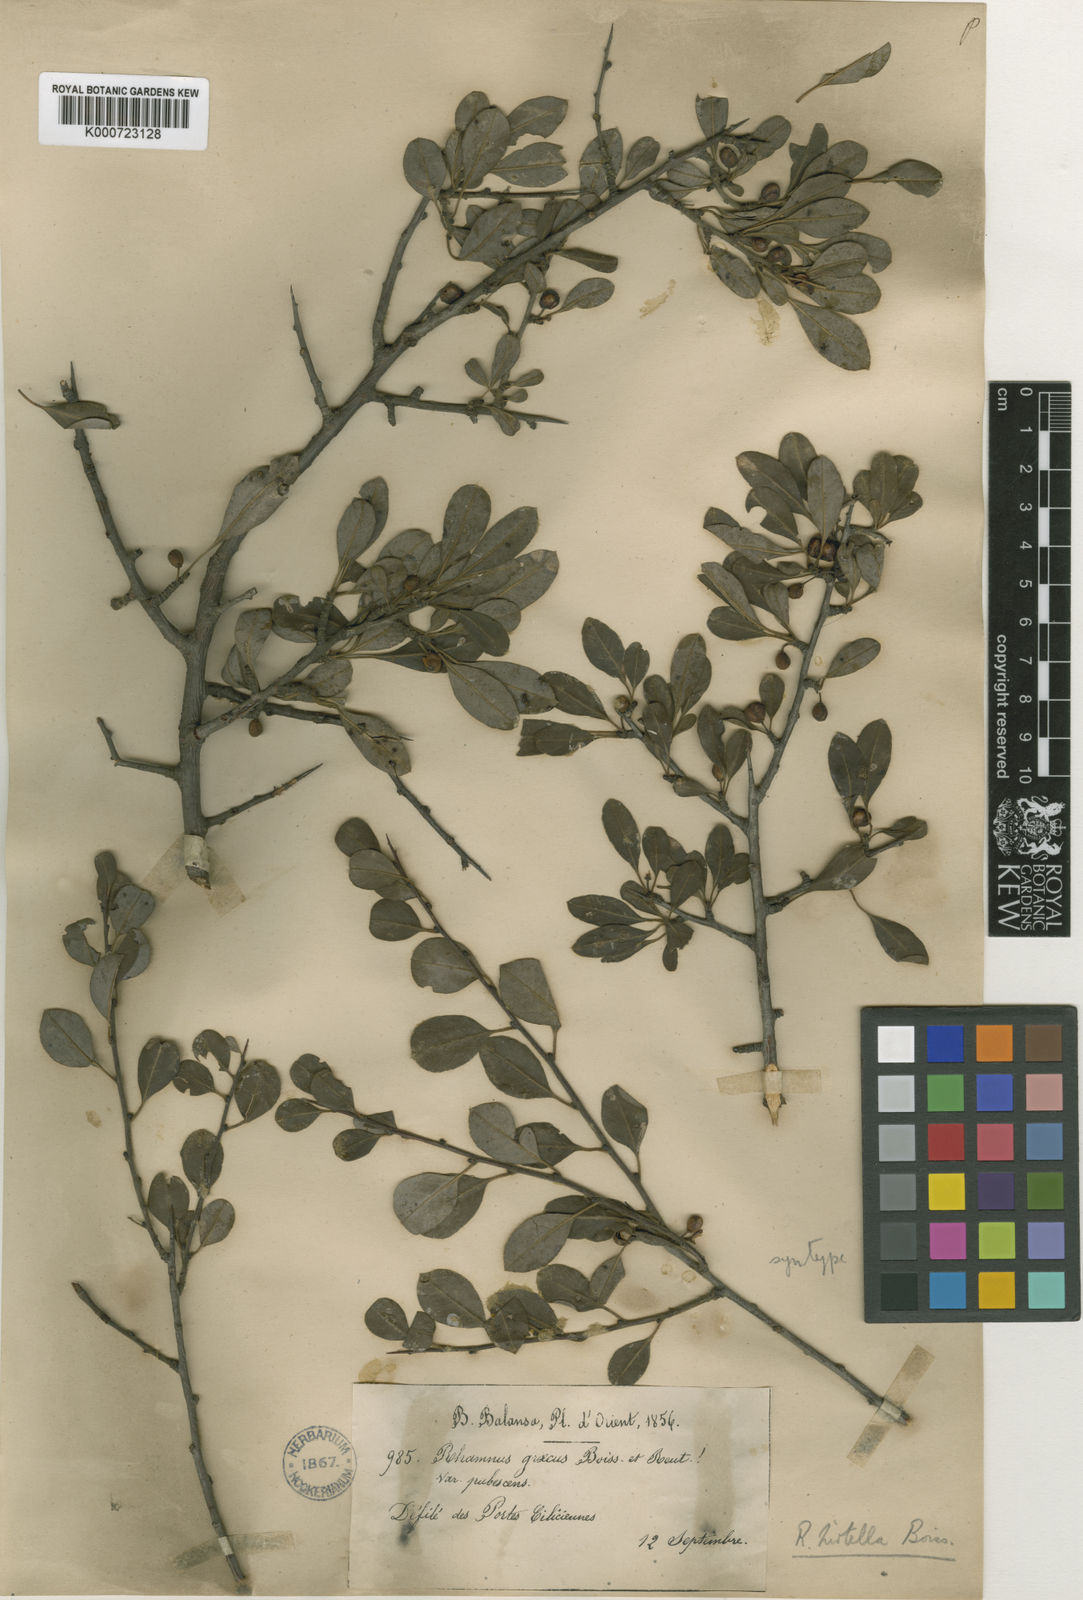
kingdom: Plantae
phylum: Tracheophyta
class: Magnoliopsida
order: Rosales
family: Rhamnaceae
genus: Rhamnus
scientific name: Rhamnus hirtella
